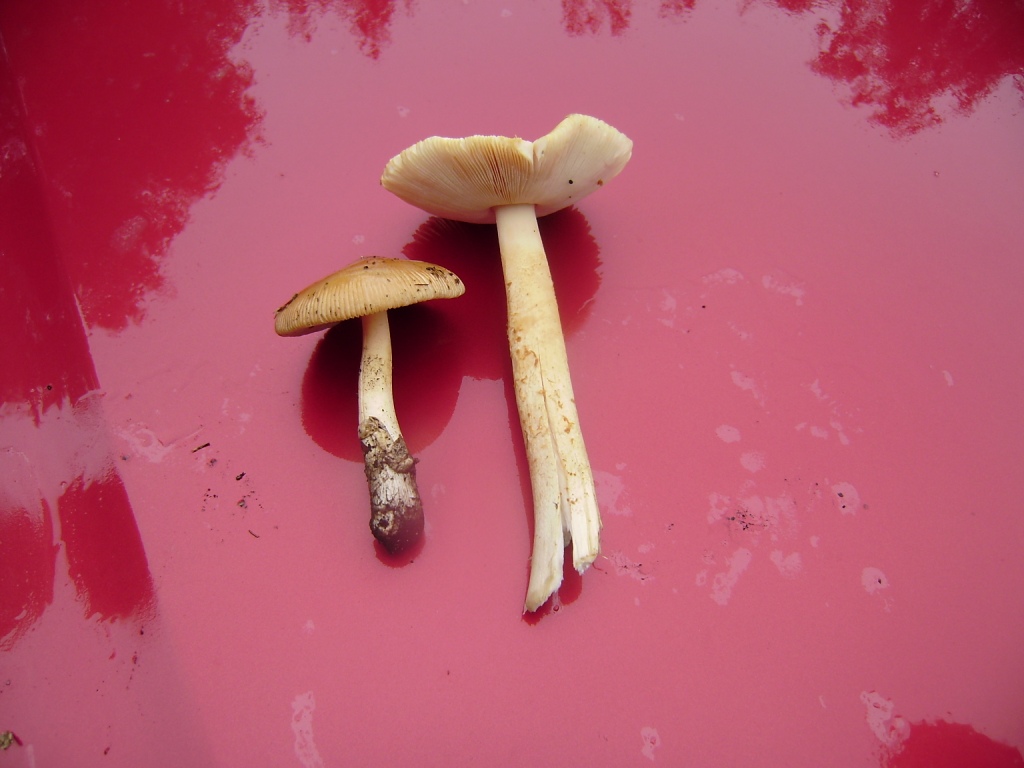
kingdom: Fungi
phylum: Basidiomycota
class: Agaricomycetes
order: Agaricales
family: Amanitaceae
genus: Amanita
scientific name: Amanita crocea
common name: gylden kam-fluesvamp
